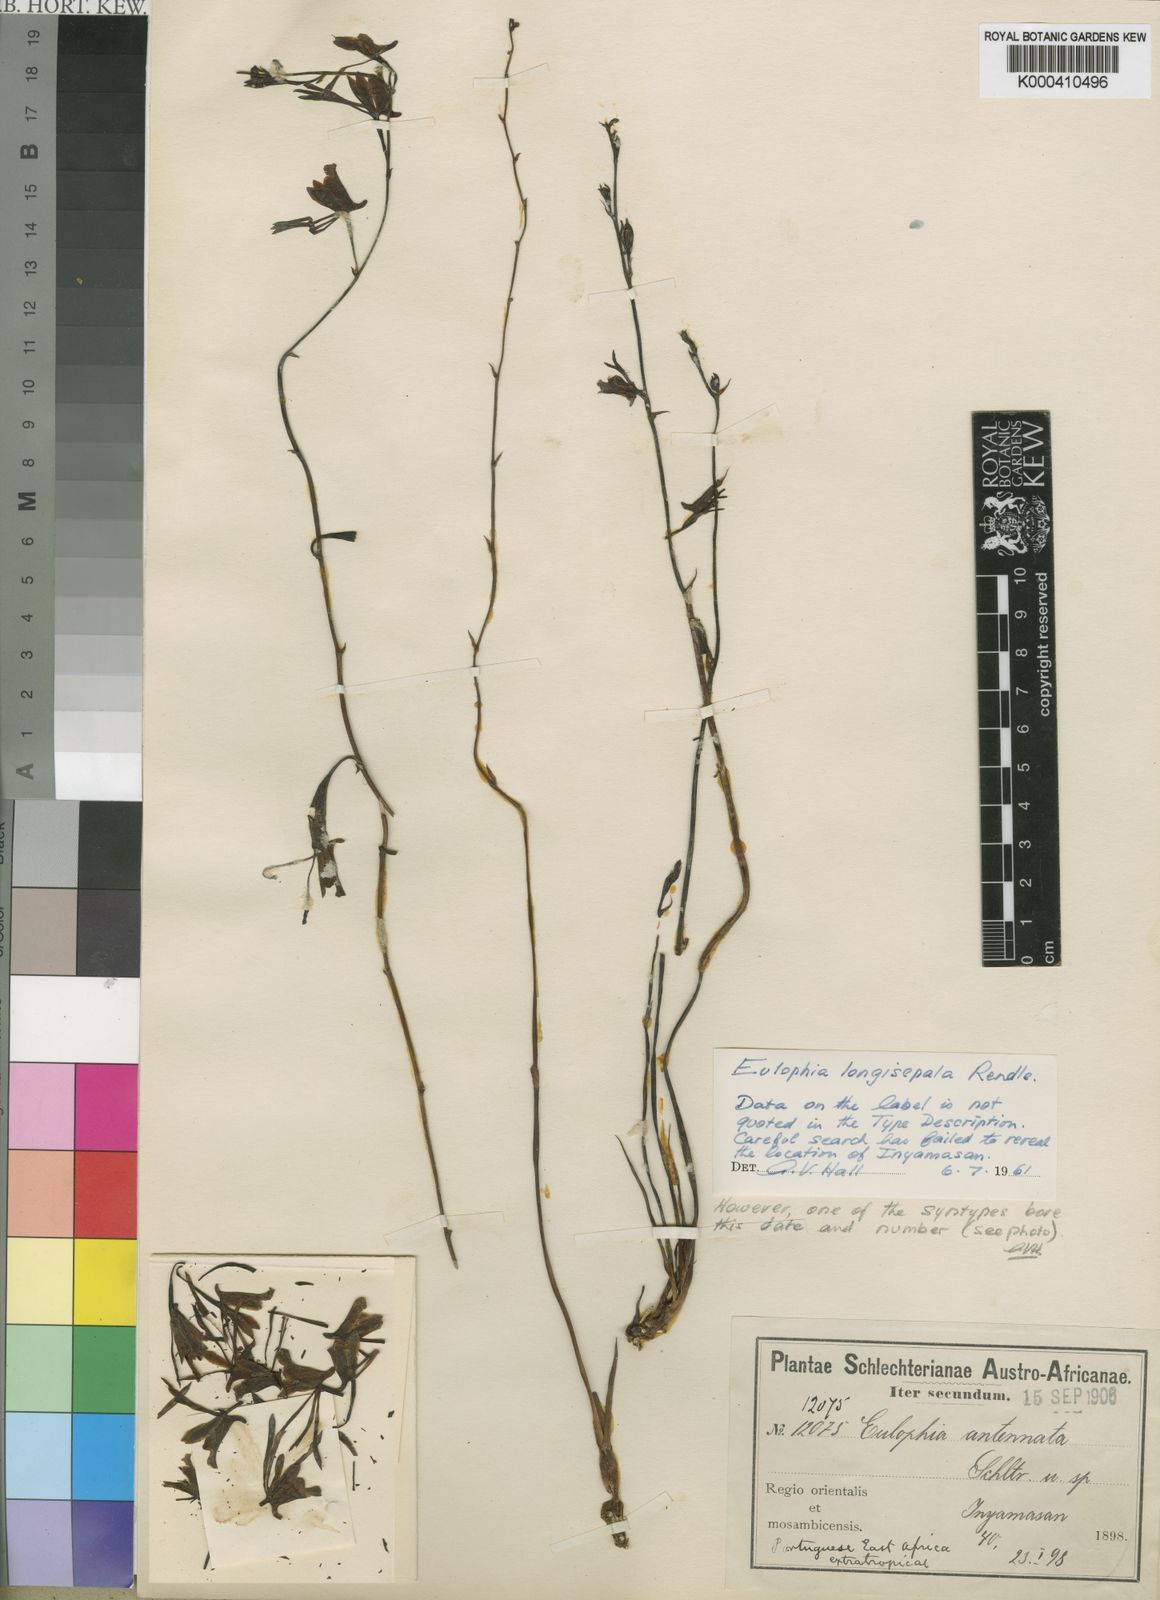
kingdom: Plantae
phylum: Tracheophyta
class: Liliopsida
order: Asparagales
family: Orchidaceae
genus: Eulophia
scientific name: Eulophia longisepala
